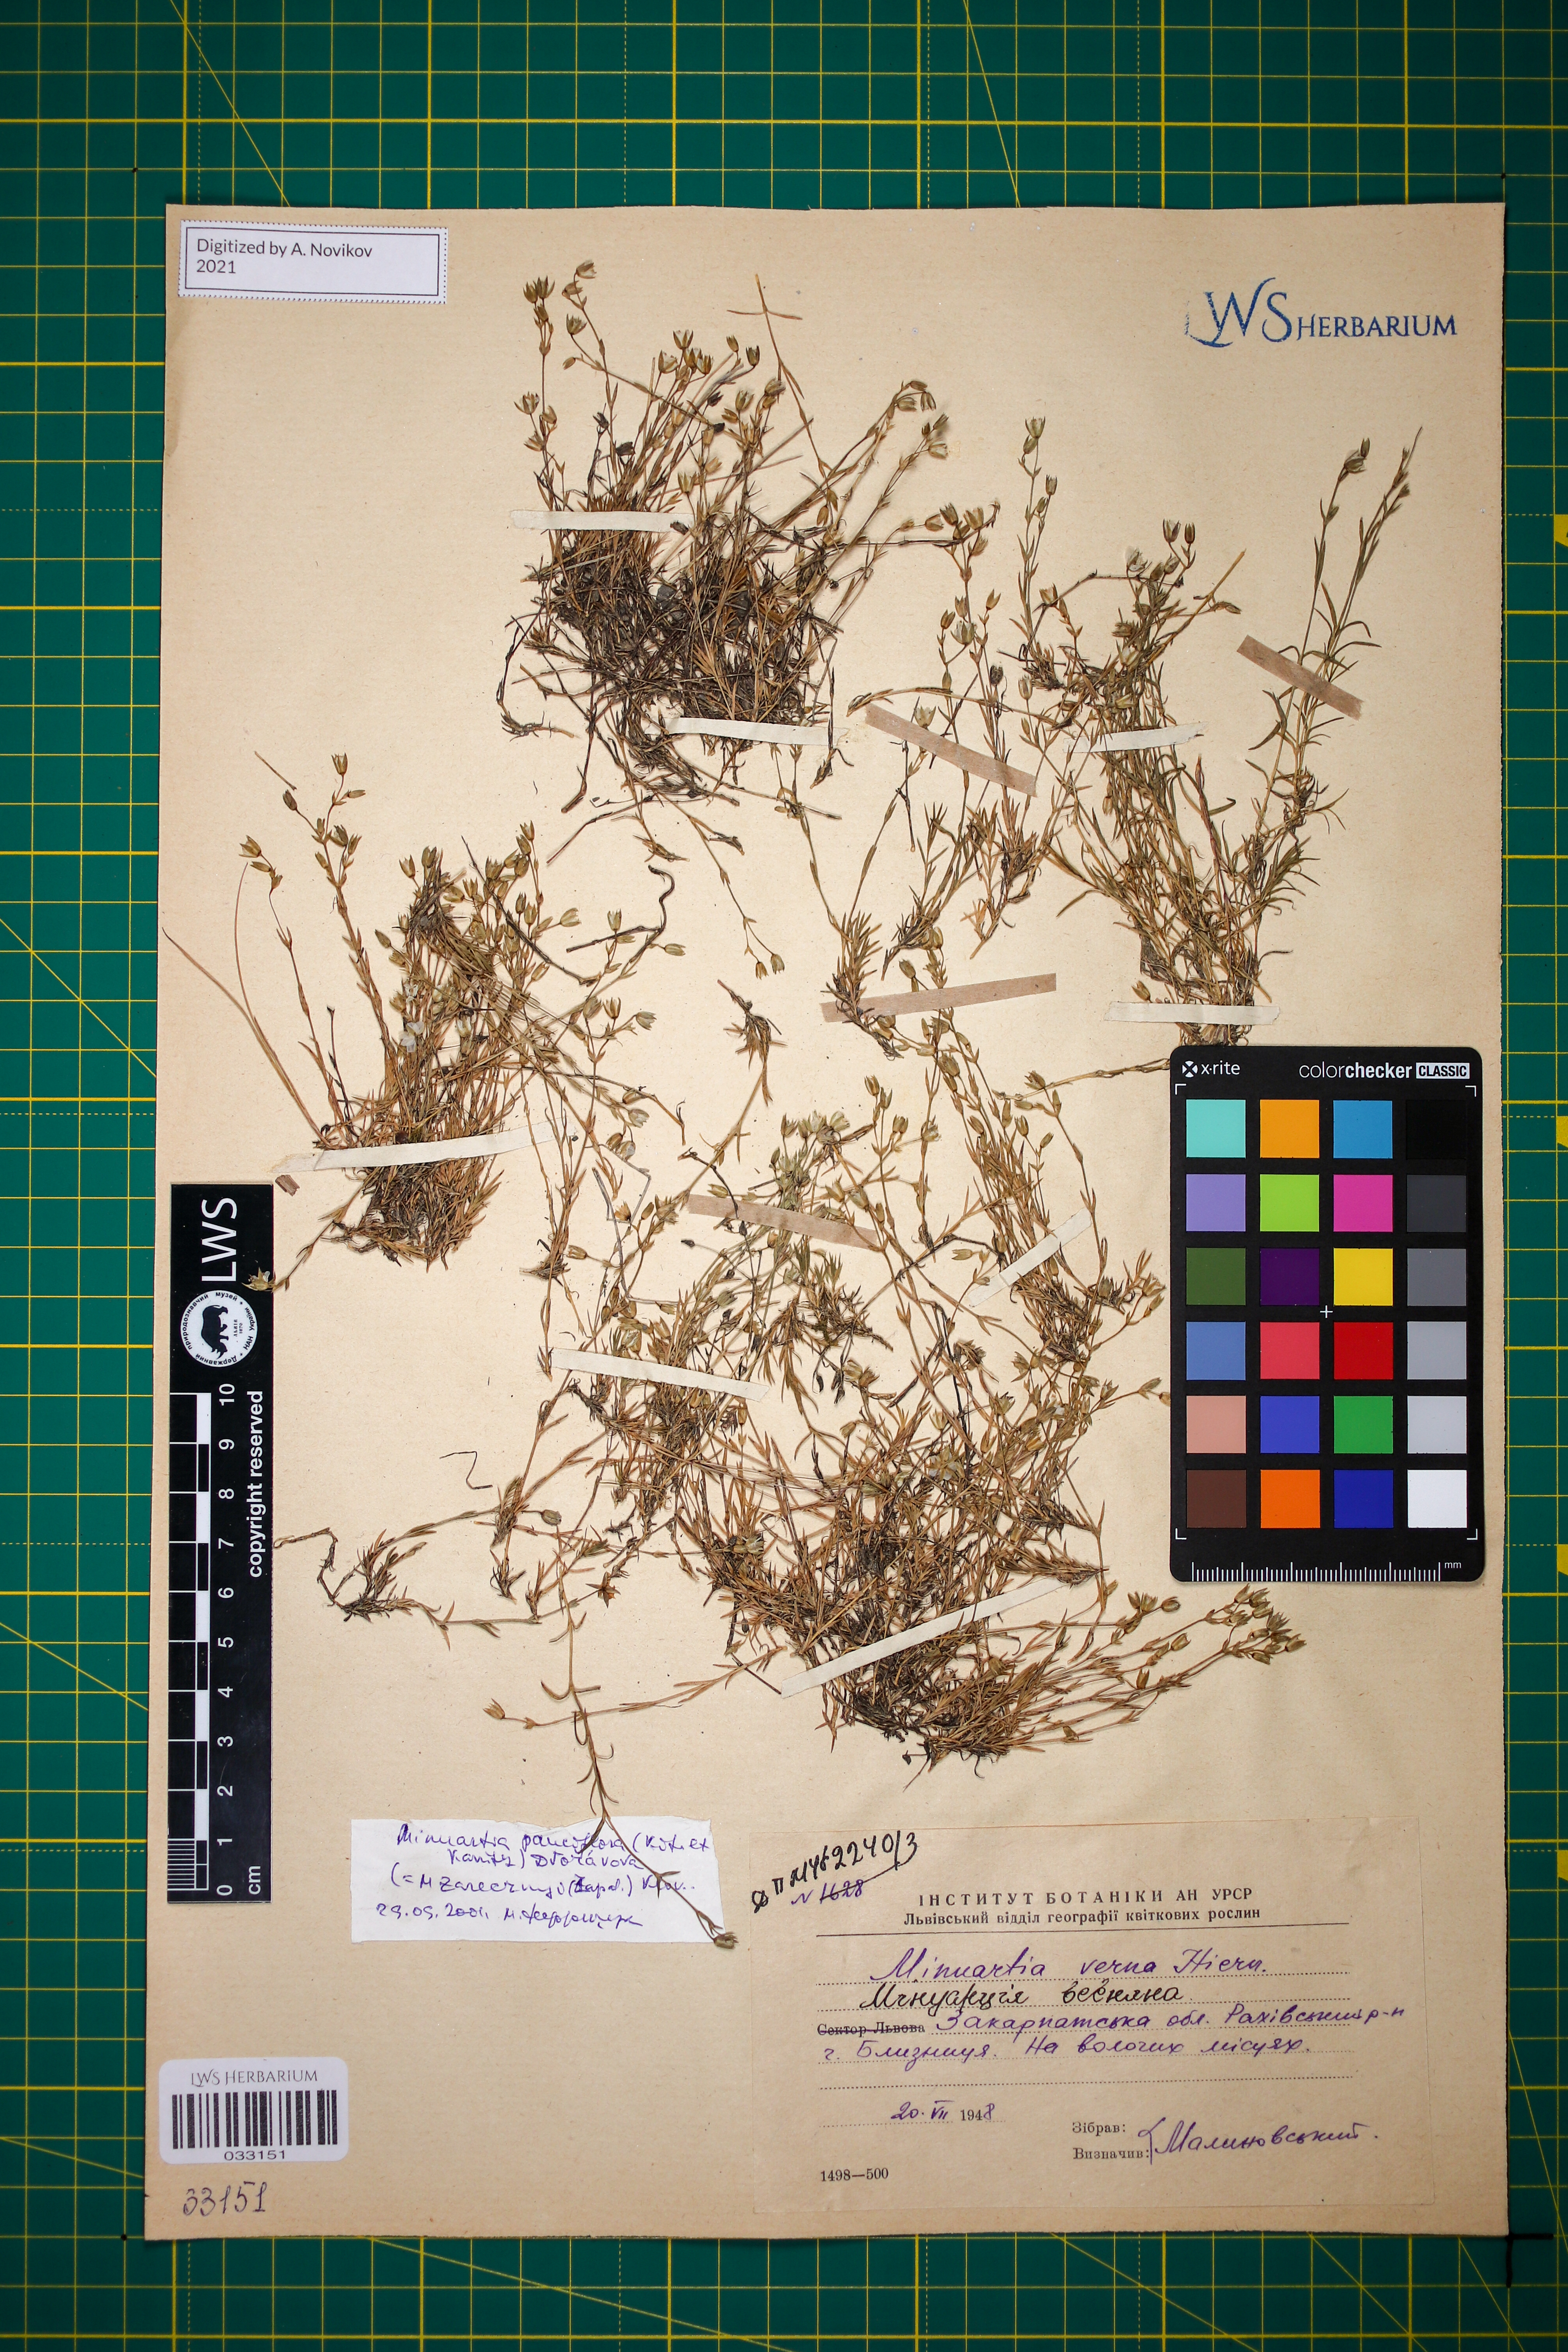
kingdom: Plantae
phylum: Tracheophyta
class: Magnoliopsida
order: Caryophyllales
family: Caryophyllaceae
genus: Minuartia
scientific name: Minuartia pauciflora
